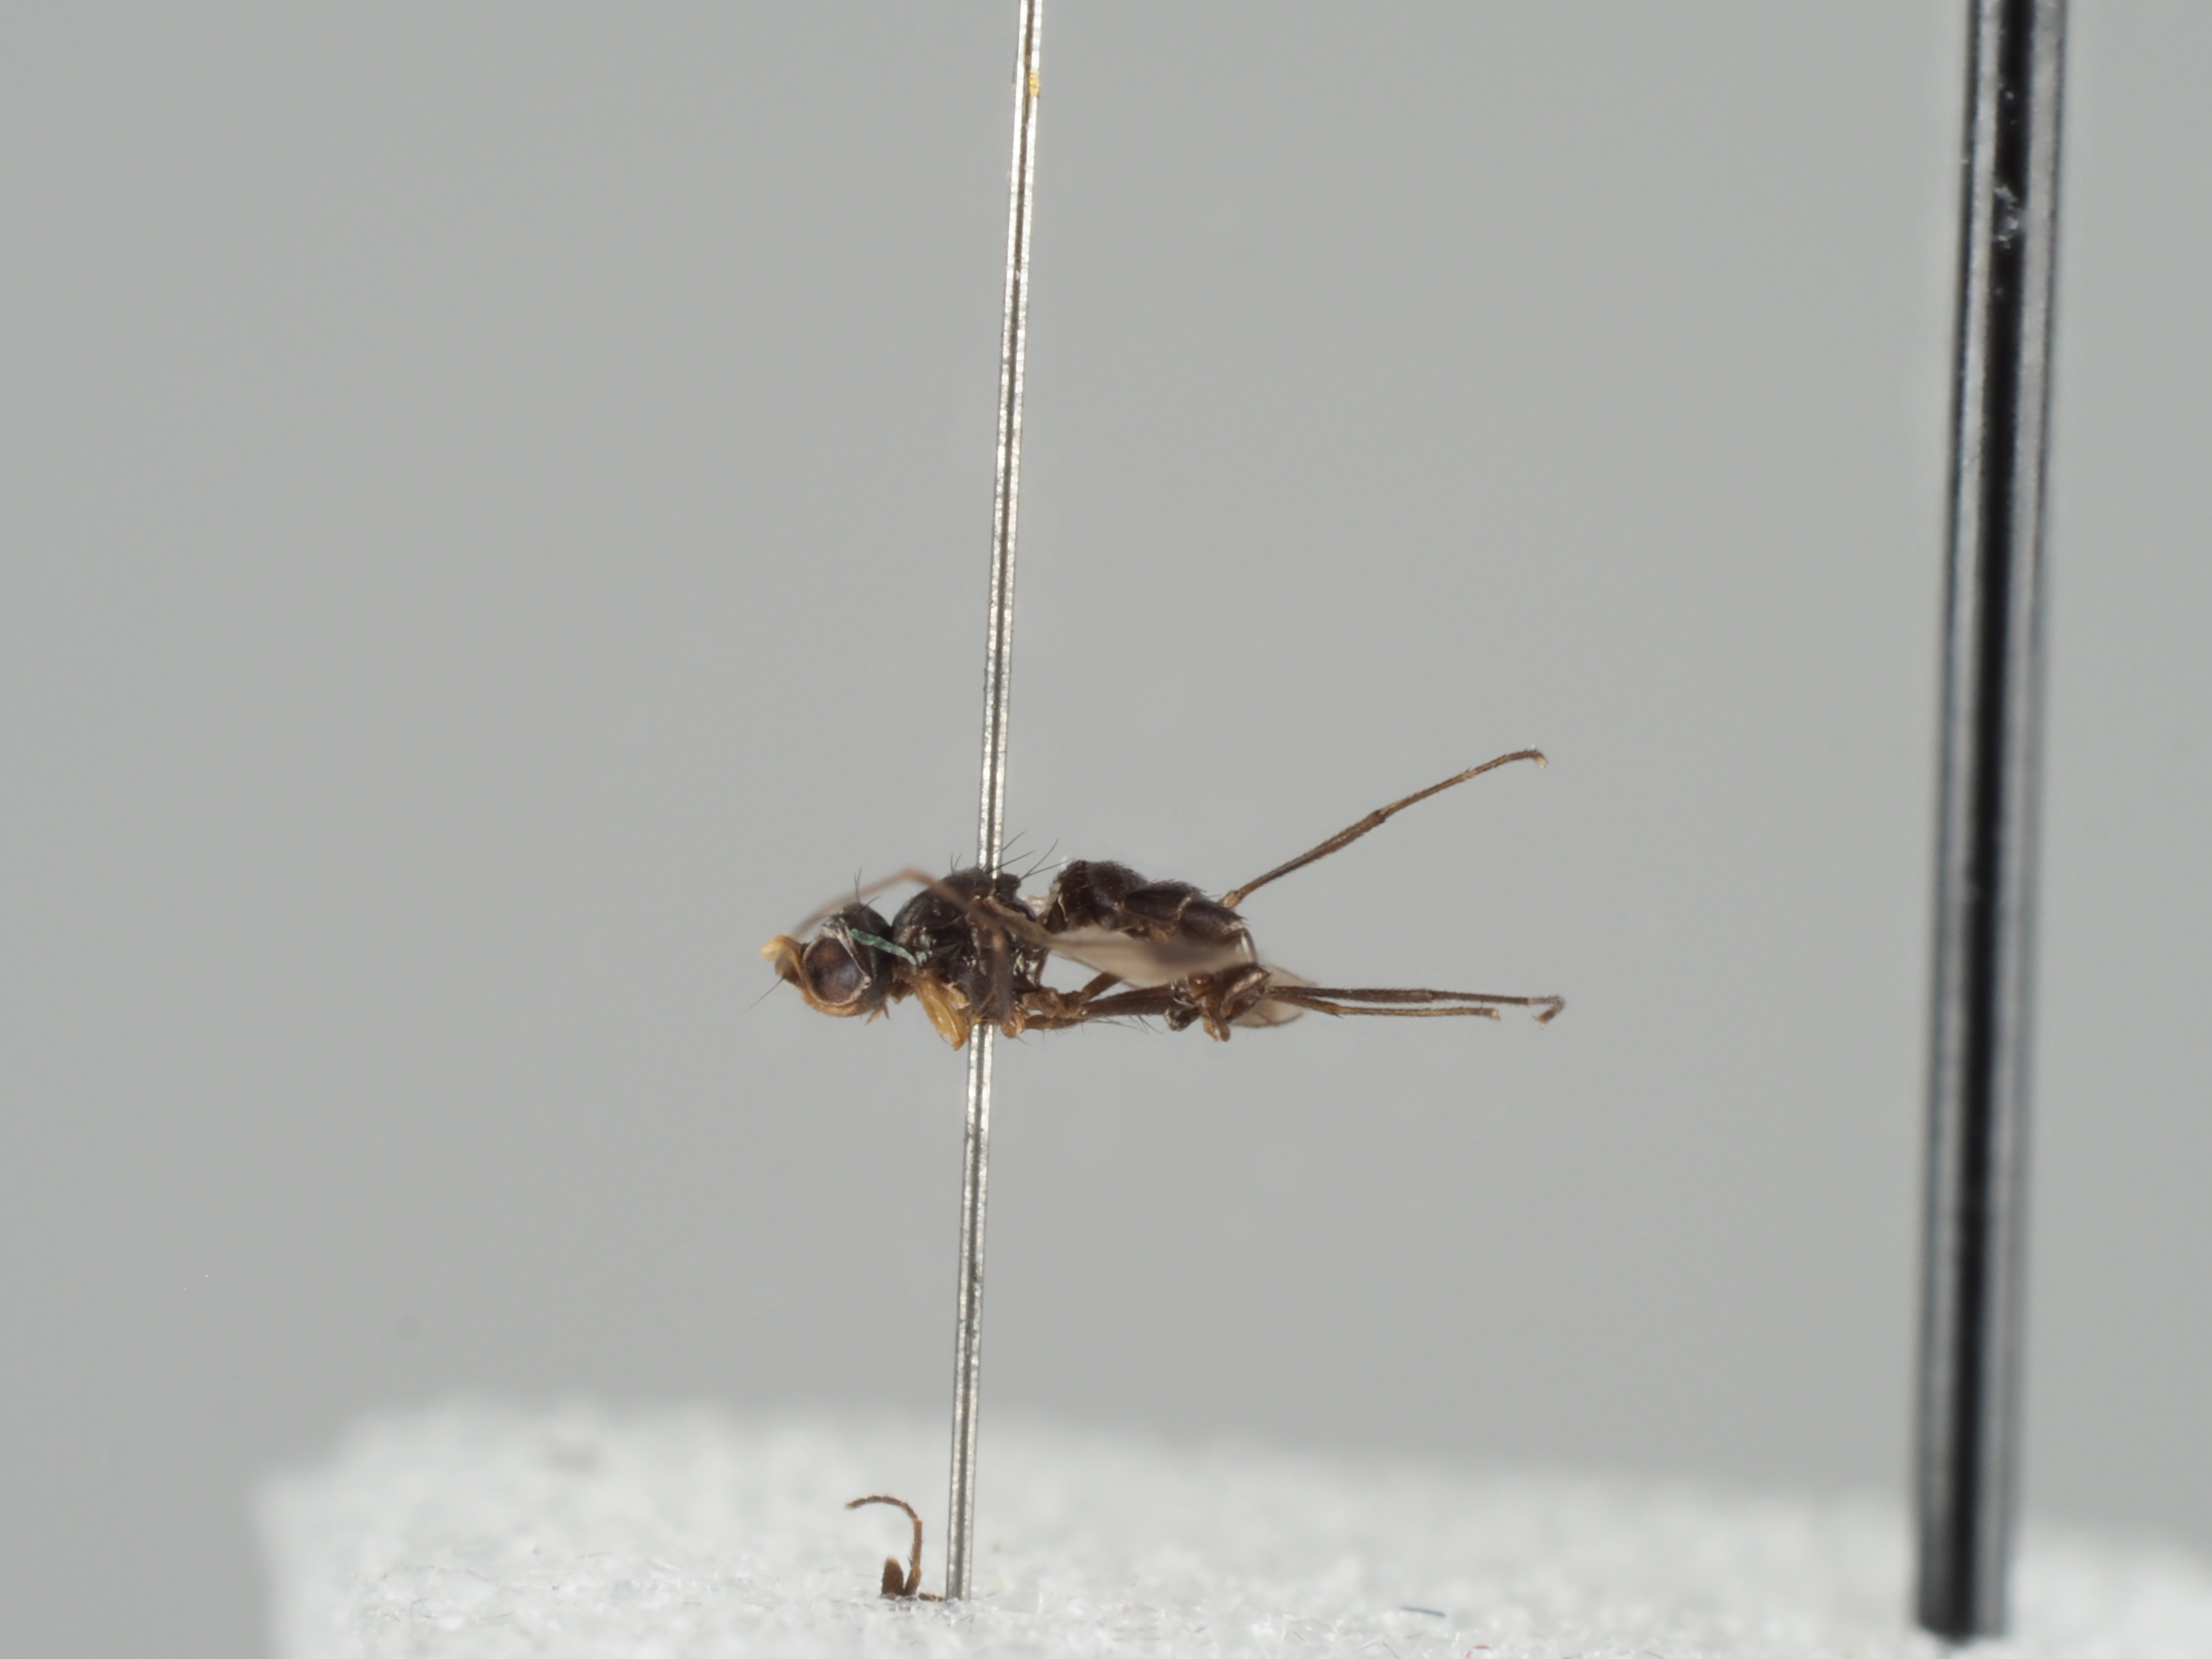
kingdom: Animalia
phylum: Arthropoda
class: Insecta
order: Diptera
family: Sepsidae
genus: Sepsis
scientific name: Sepsis duplicata
